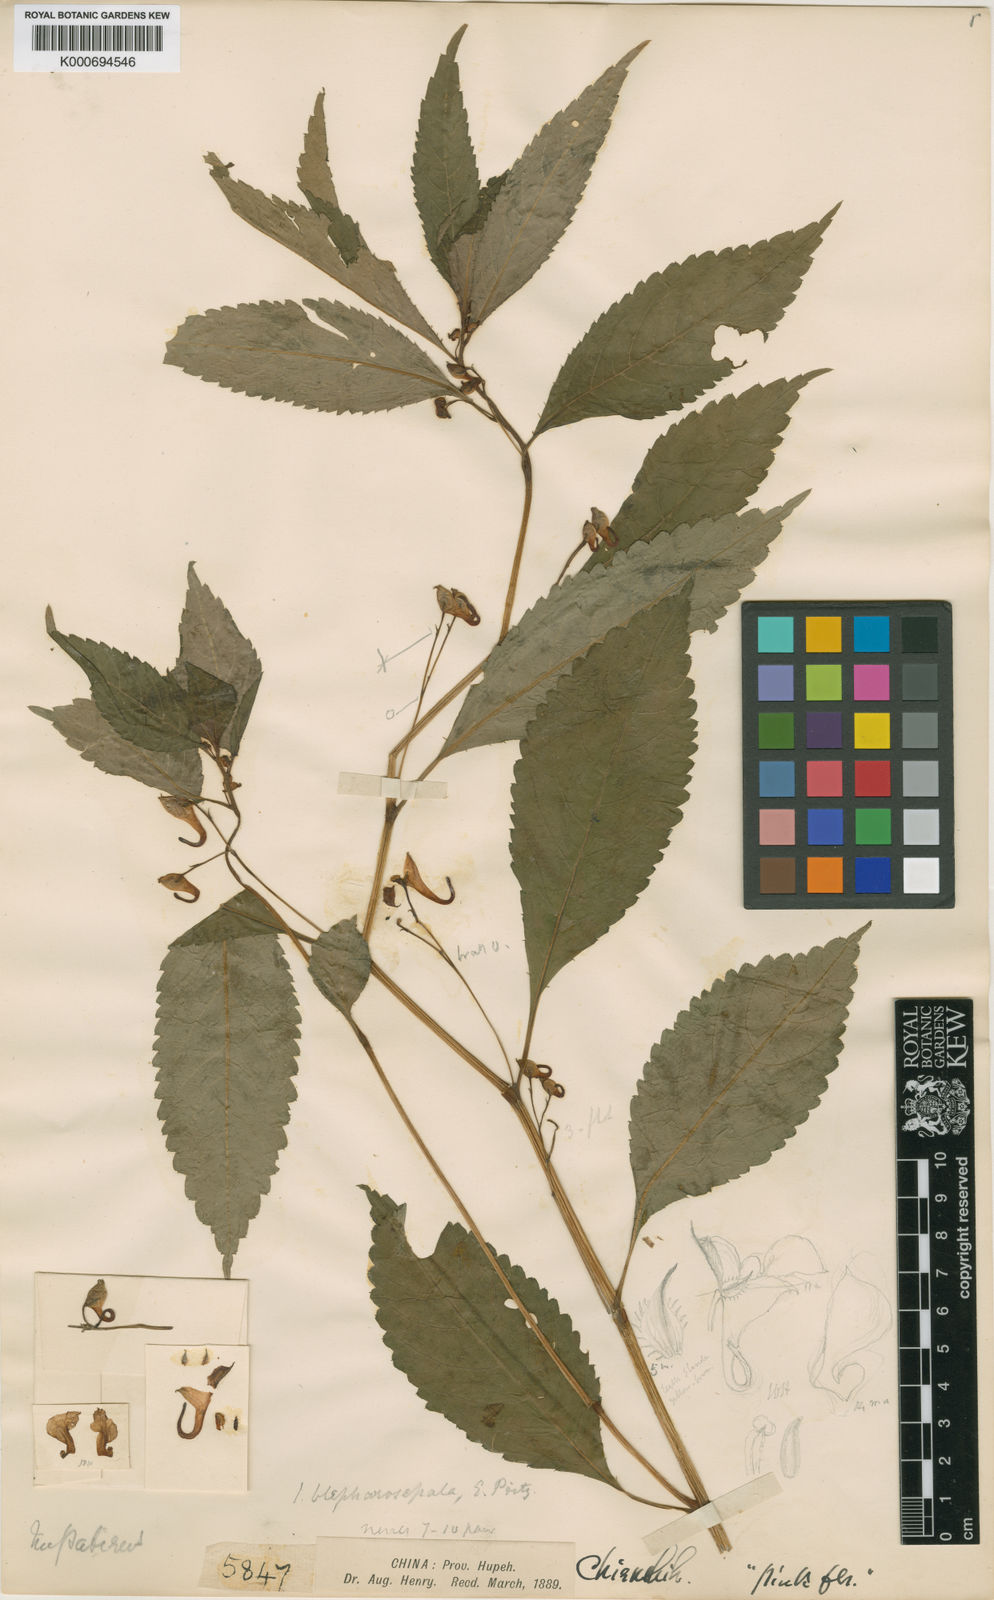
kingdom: Plantae
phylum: Tracheophyta
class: Magnoliopsida
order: Ericales
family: Balsaminaceae
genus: Impatiens
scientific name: Impatiens blepharosepala
